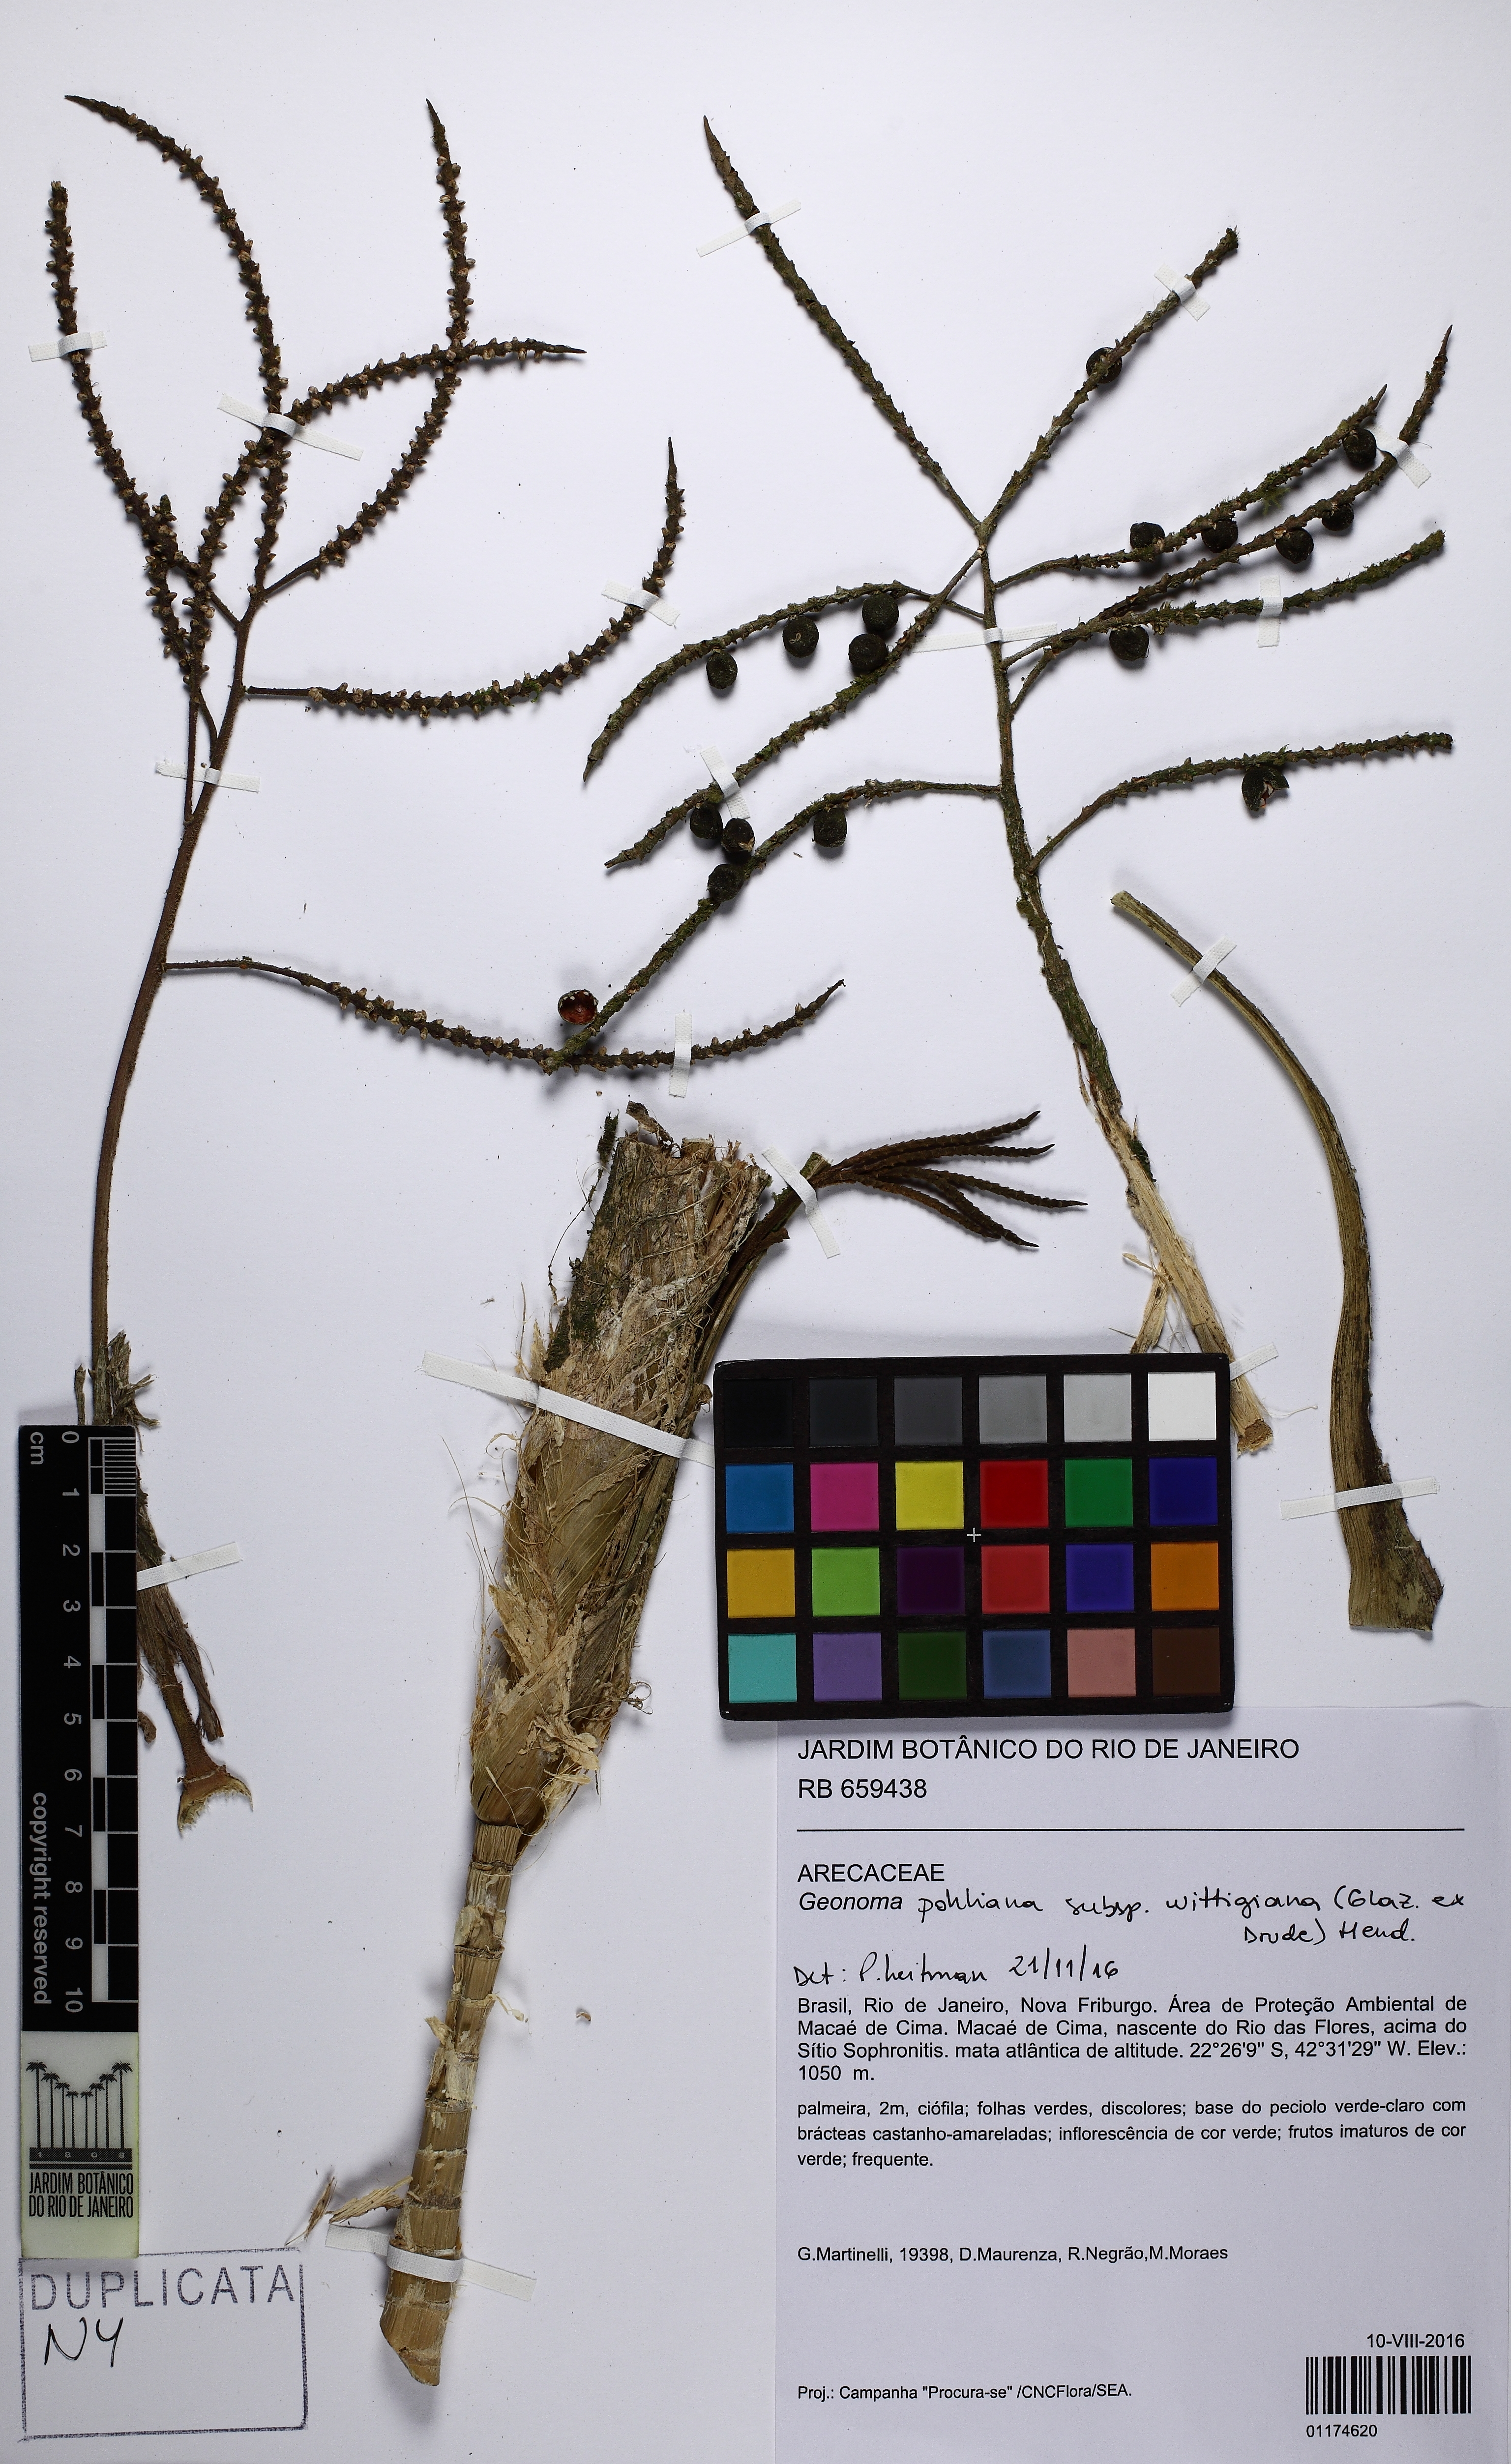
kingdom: Plantae
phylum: Tracheophyta
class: Liliopsida
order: Arecales
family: Arecaceae
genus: Geonoma
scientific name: Geonoma pohliana
